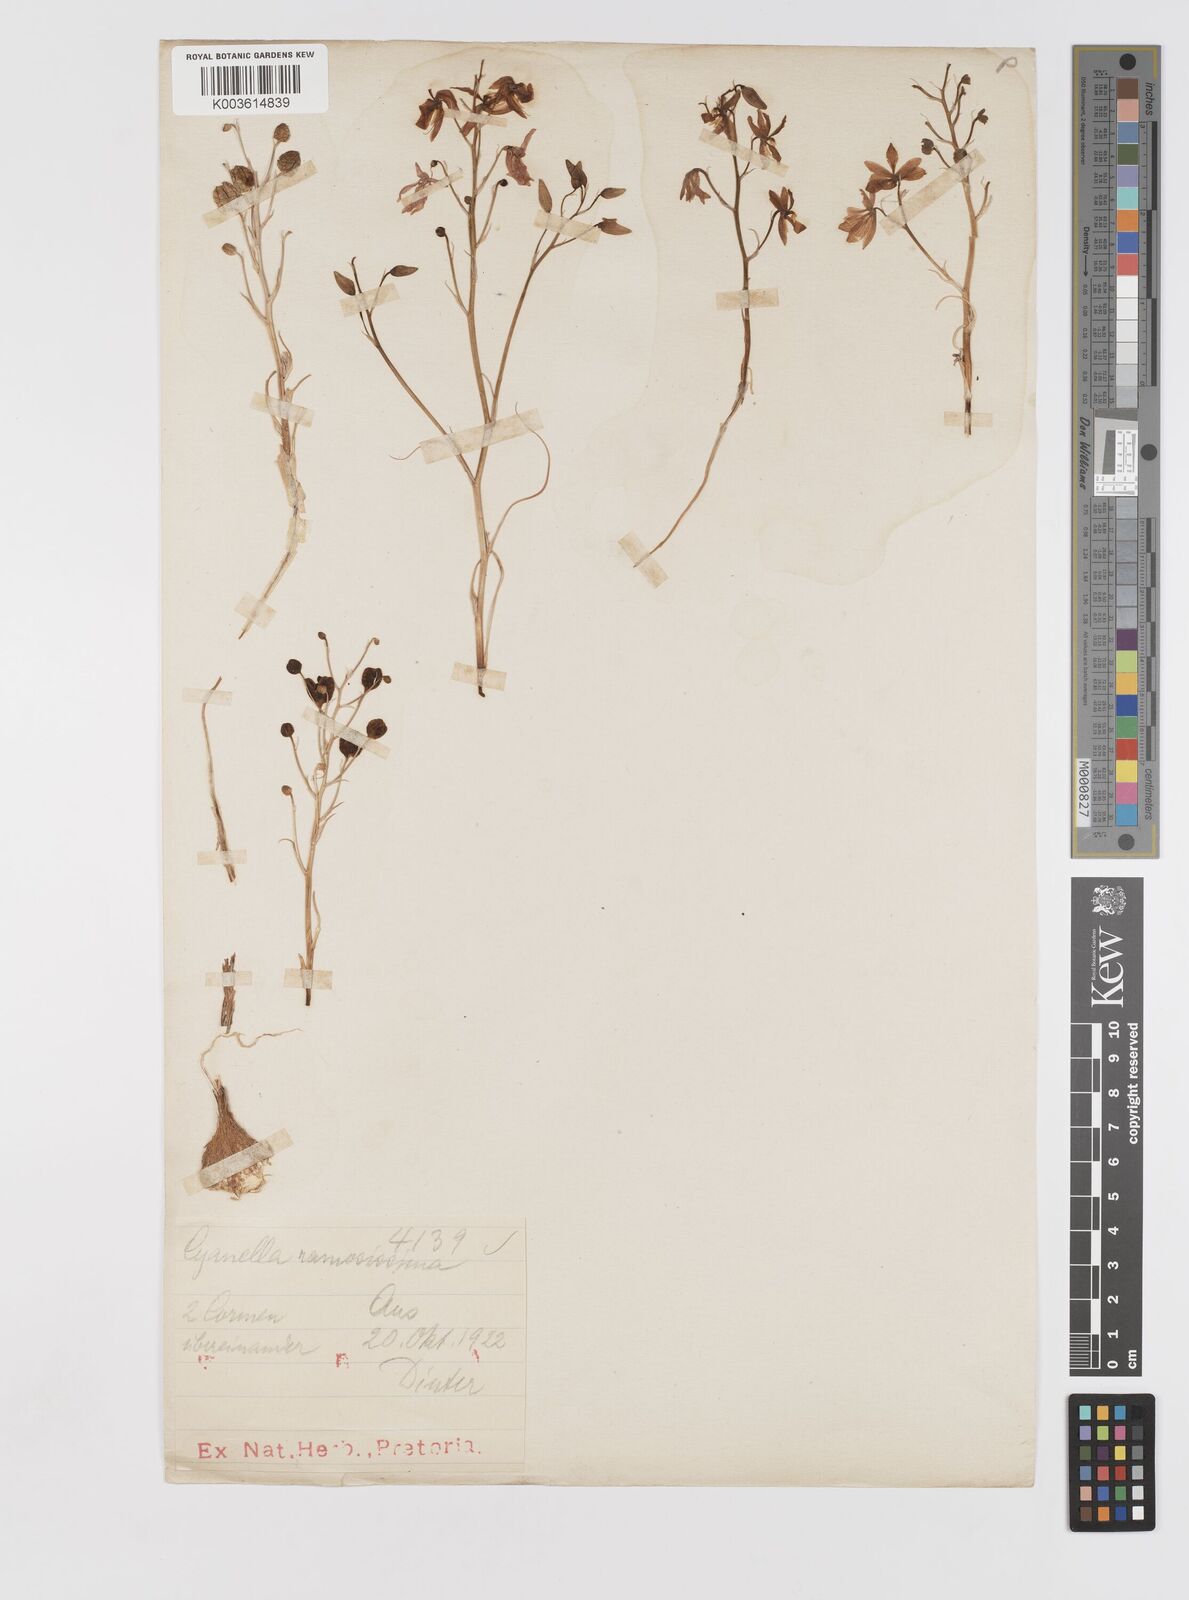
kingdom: Plantae
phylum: Tracheophyta
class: Liliopsida
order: Asparagales
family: Tecophilaeaceae
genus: Cyanella
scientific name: Cyanella
